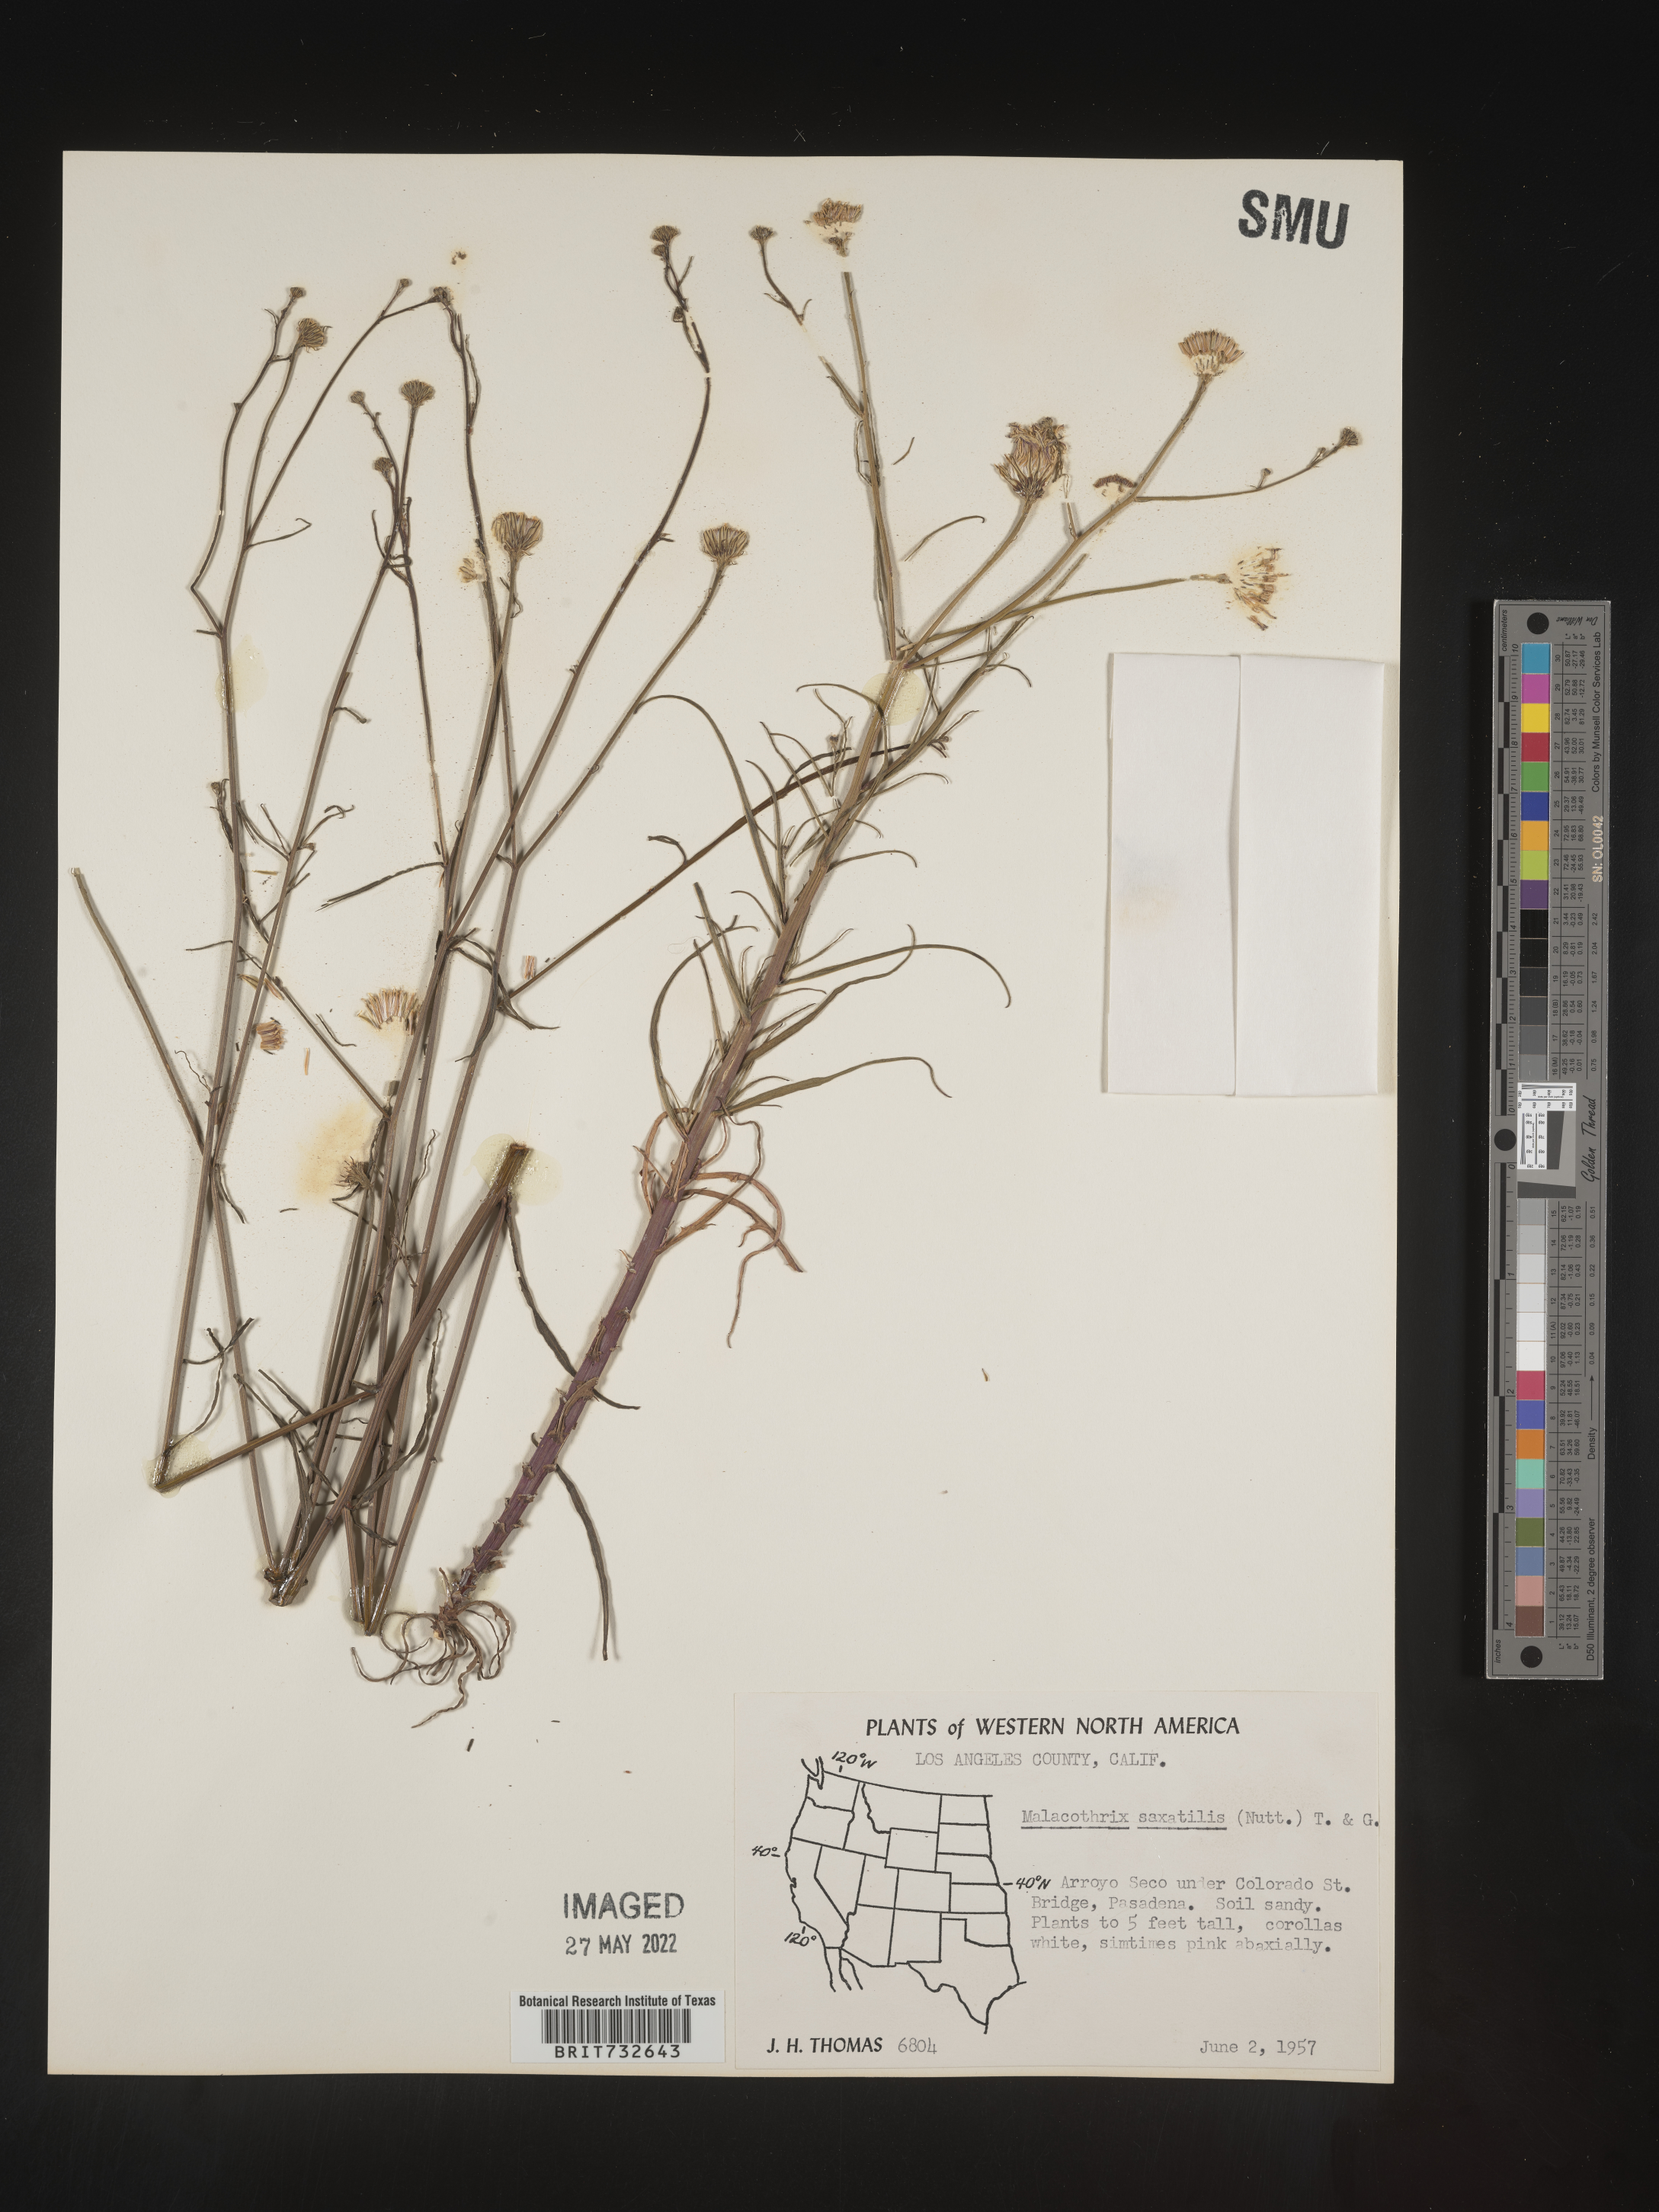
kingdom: Plantae
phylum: Tracheophyta
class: Magnoliopsida
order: Asterales
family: Asteraceae
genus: Malacothrix
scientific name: Malacothrix saxatilis
